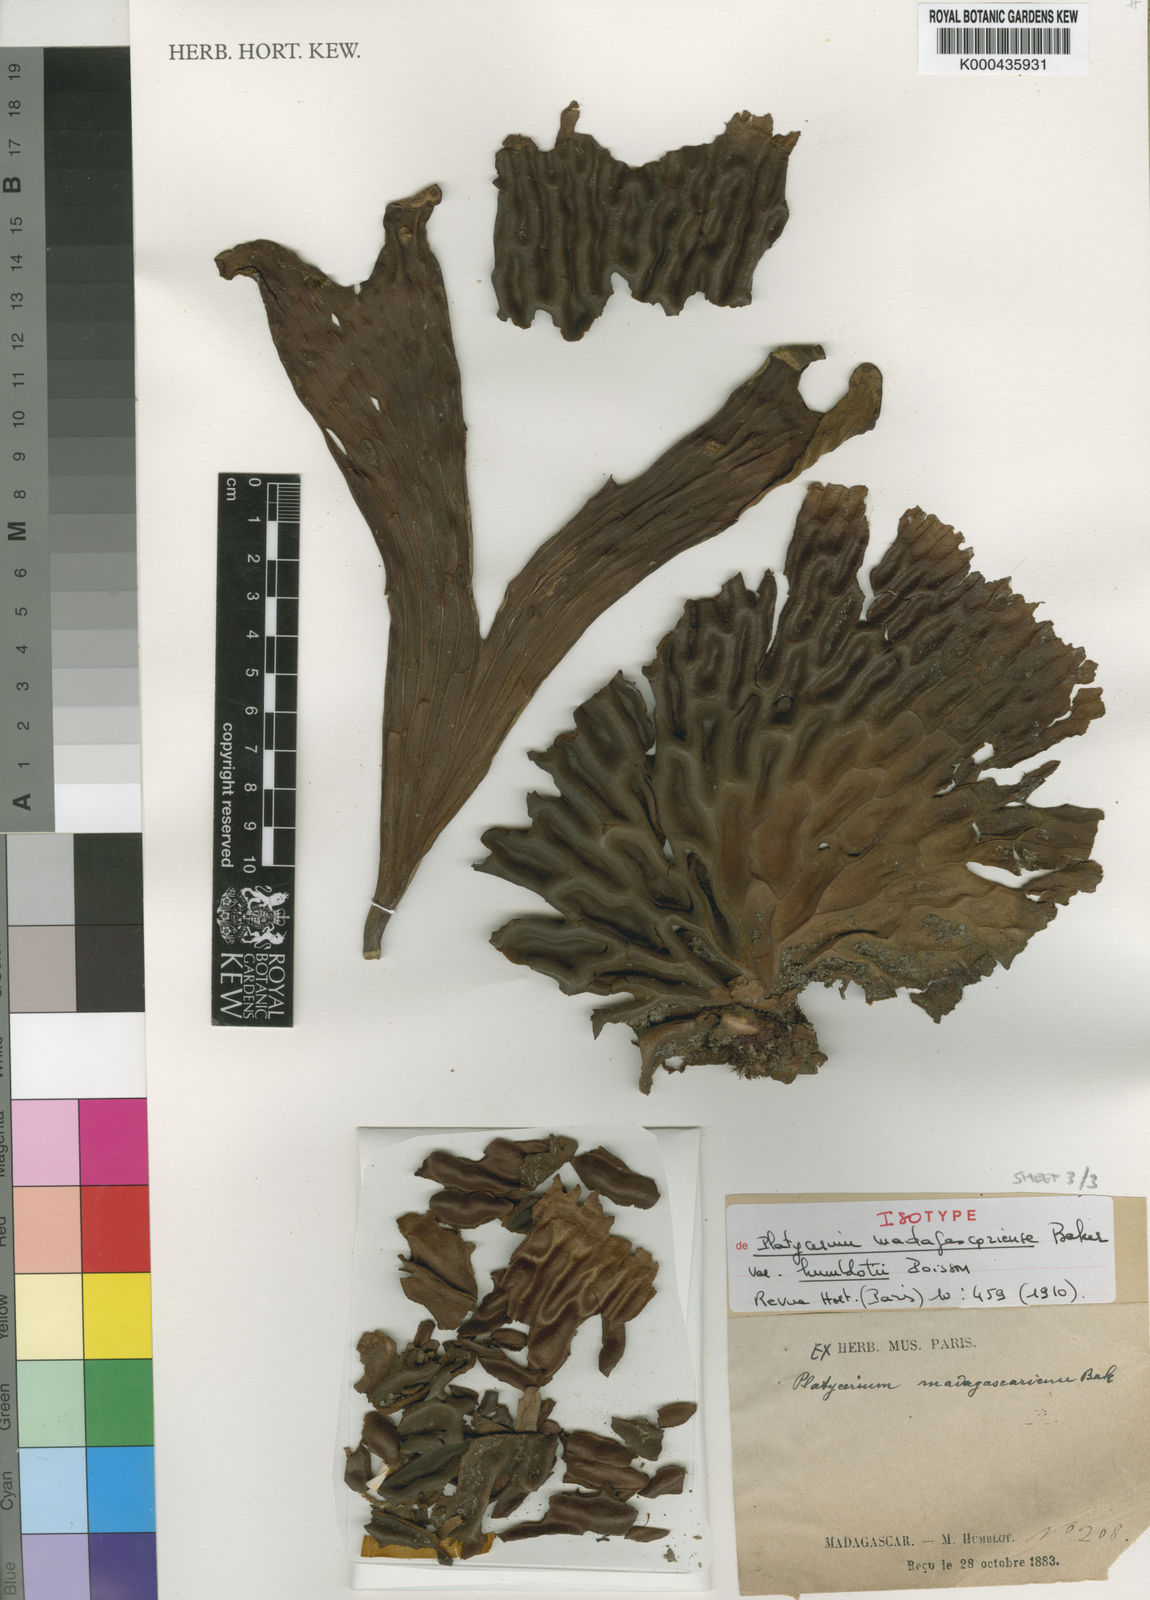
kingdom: Plantae
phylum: Tracheophyta
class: Polypodiopsida
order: Polypodiales
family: Polypodiaceae
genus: Platycerium
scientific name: Platycerium madagascariense
